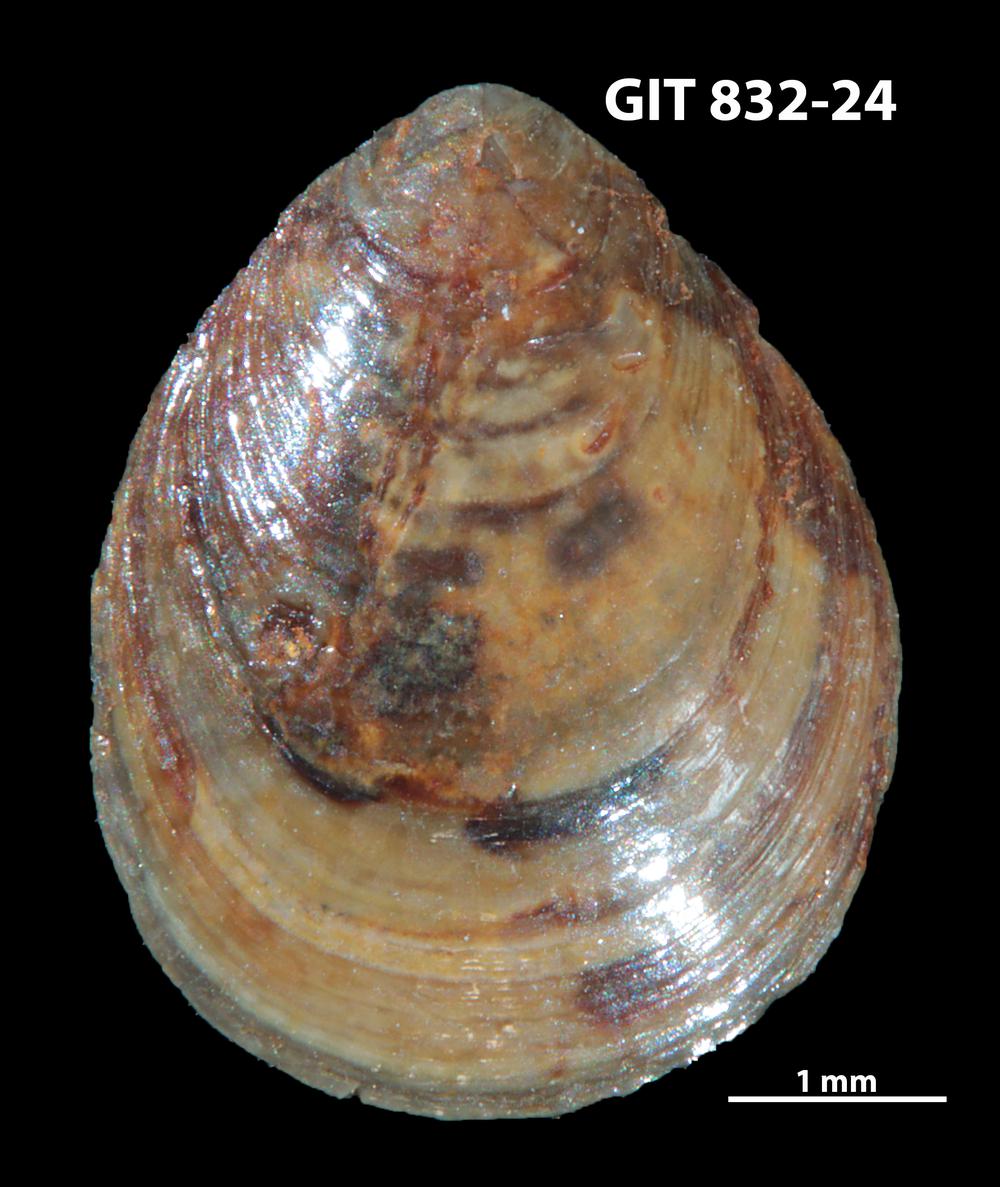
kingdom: Animalia
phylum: Brachiopoda
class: Lingulata
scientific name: Lingulata
